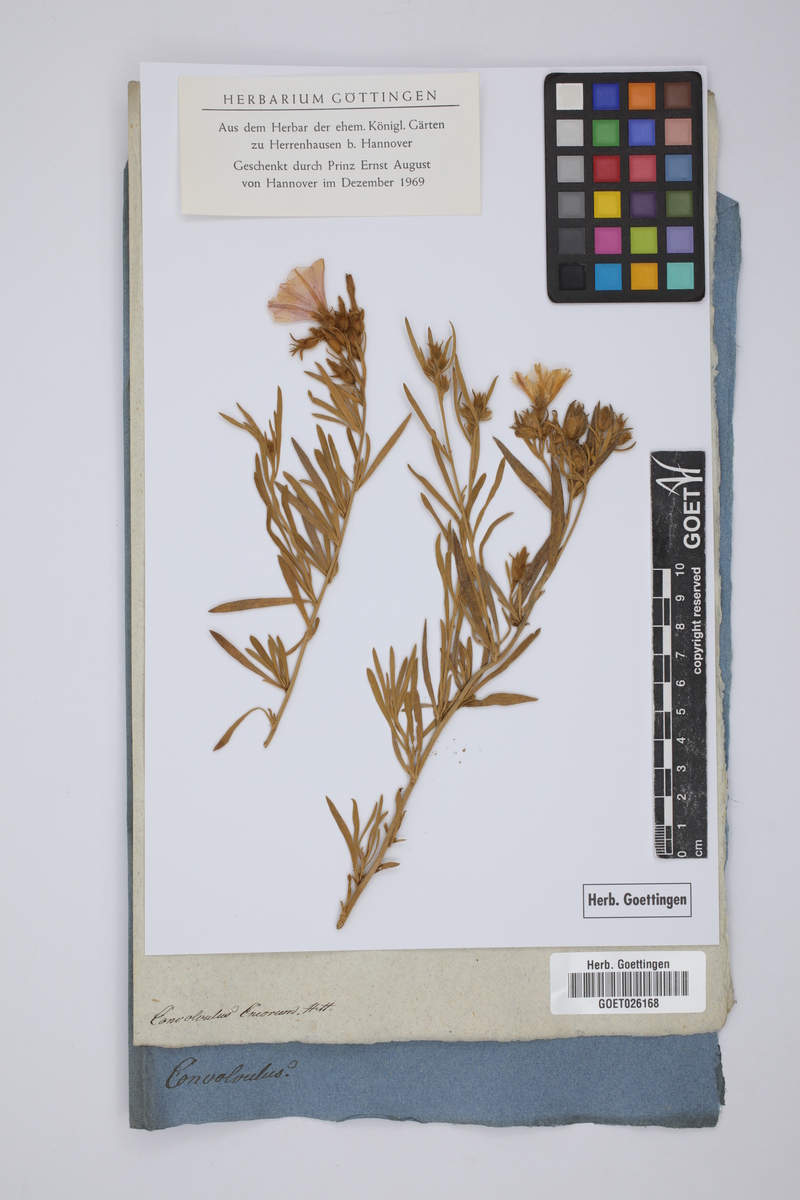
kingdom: Plantae
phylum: Tracheophyta
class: Magnoliopsida
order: Solanales
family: Convolvulaceae
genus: Convolvulus
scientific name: Convolvulus cneorum
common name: Silverbush
